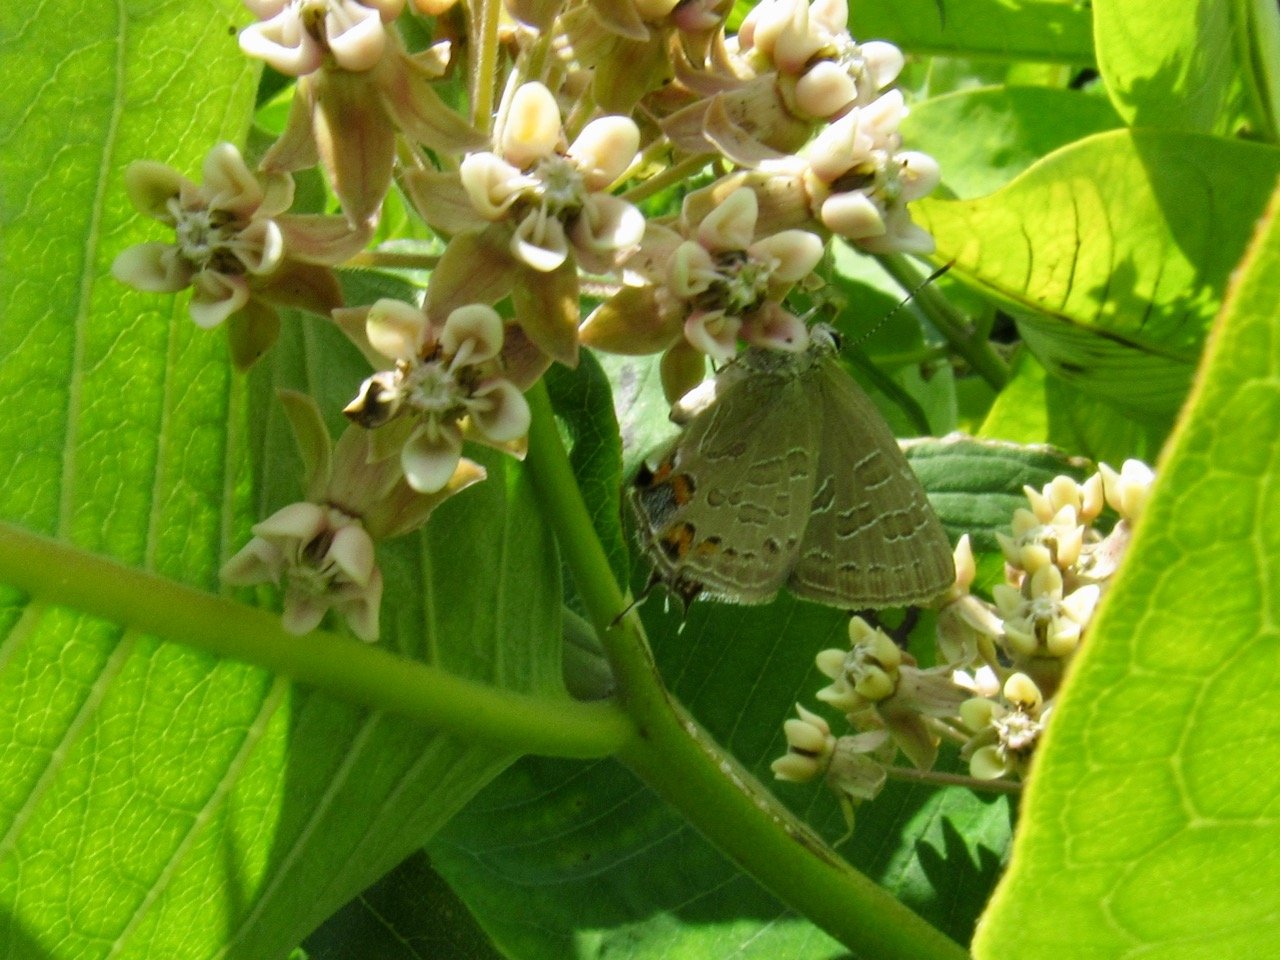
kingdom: Animalia
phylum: Arthropoda
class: Insecta
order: Lepidoptera
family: Lycaenidae
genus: Satyrium
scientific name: Satyrium liparops
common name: Striped Hairstreak
